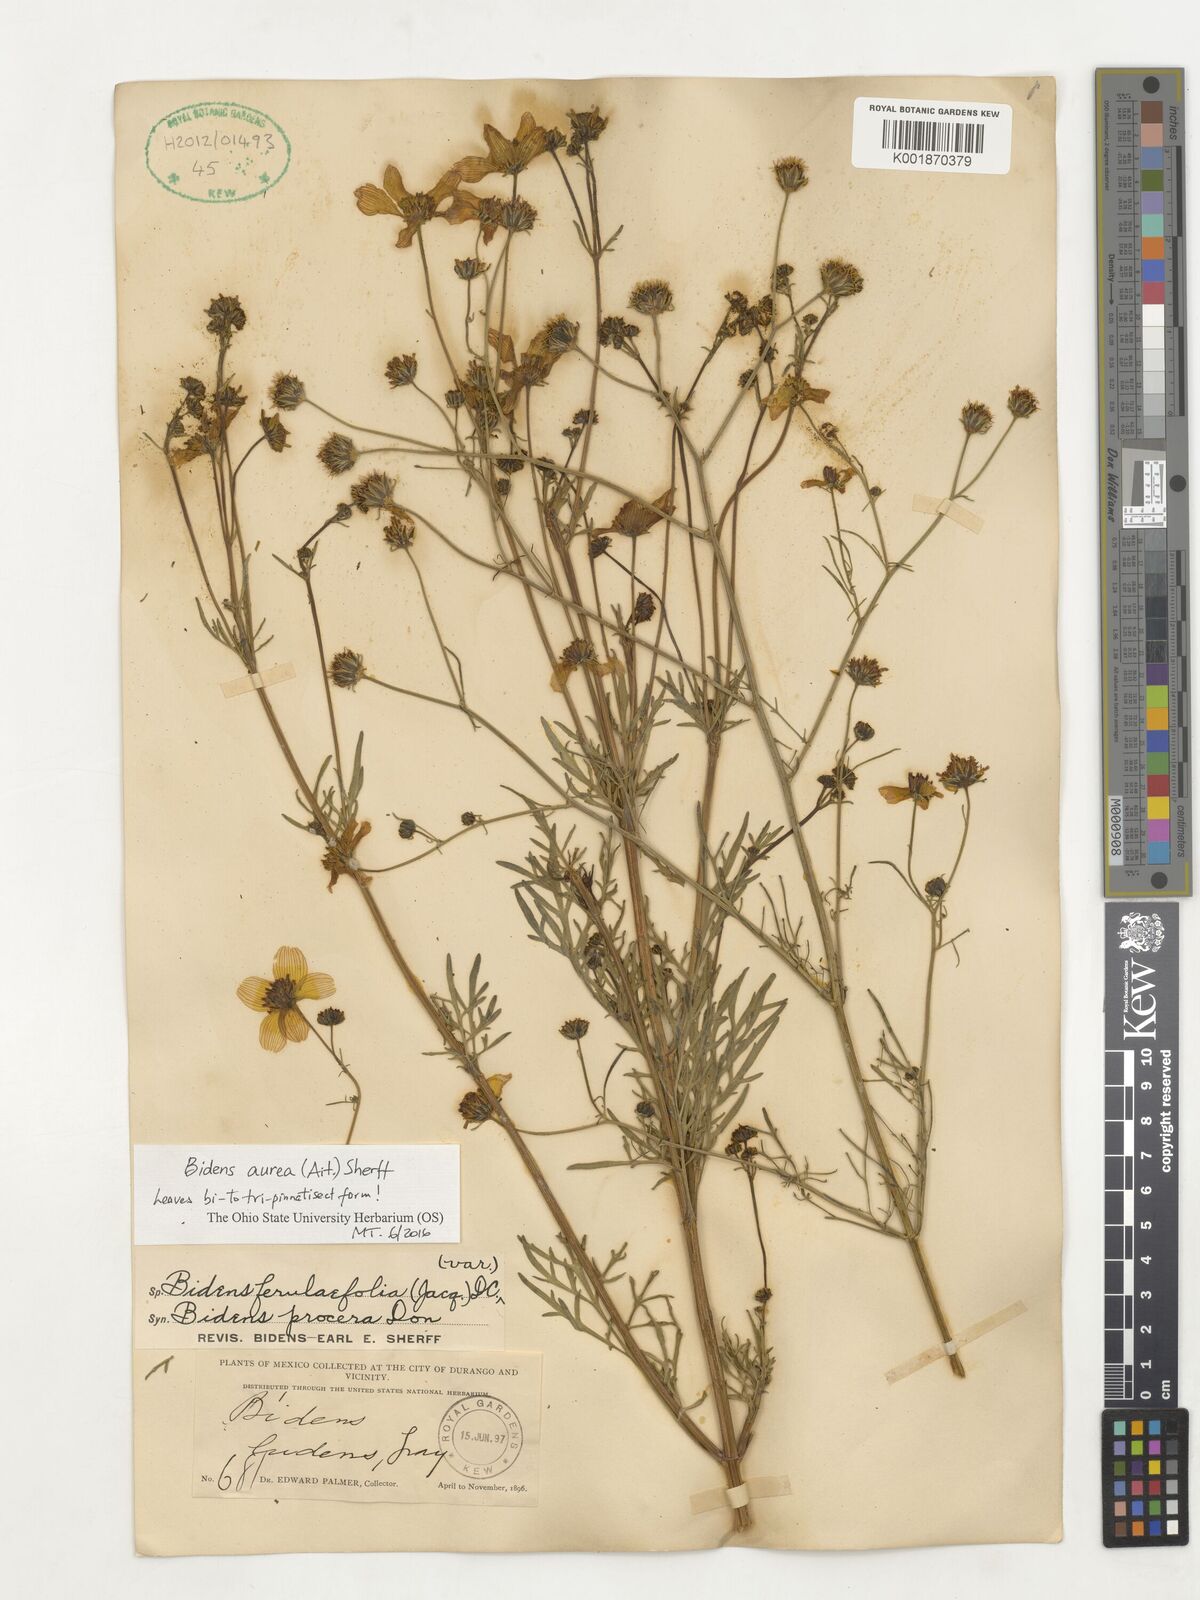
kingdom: Plantae
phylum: Tracheophyta
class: Magnoliopsida
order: Asterales
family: Asteraceae
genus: Bidens
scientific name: Bidens aurea
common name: Arizona beggar-ticks
